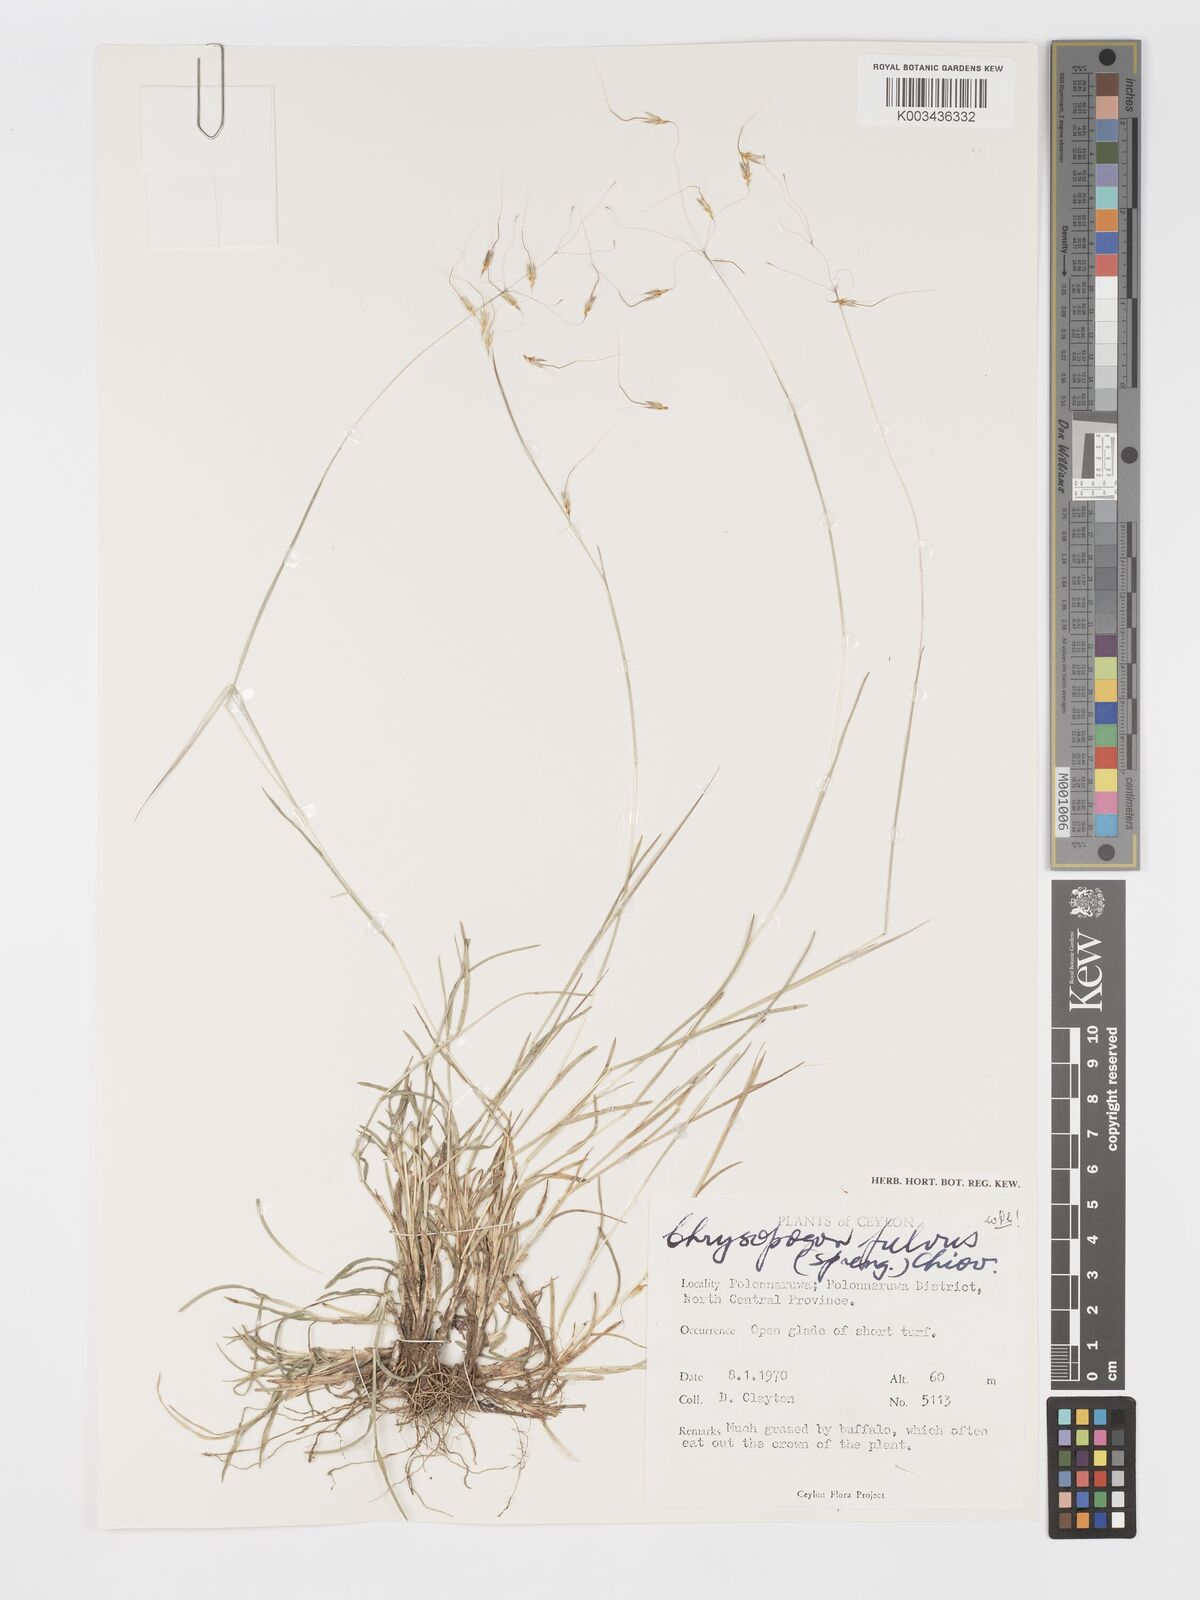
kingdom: Plantae
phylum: Tracheophyta
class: Liliopsida
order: Poales
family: Poaceae
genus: Chrysopogon
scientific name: Chrysopogon fulvus
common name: Red false beardgrass
